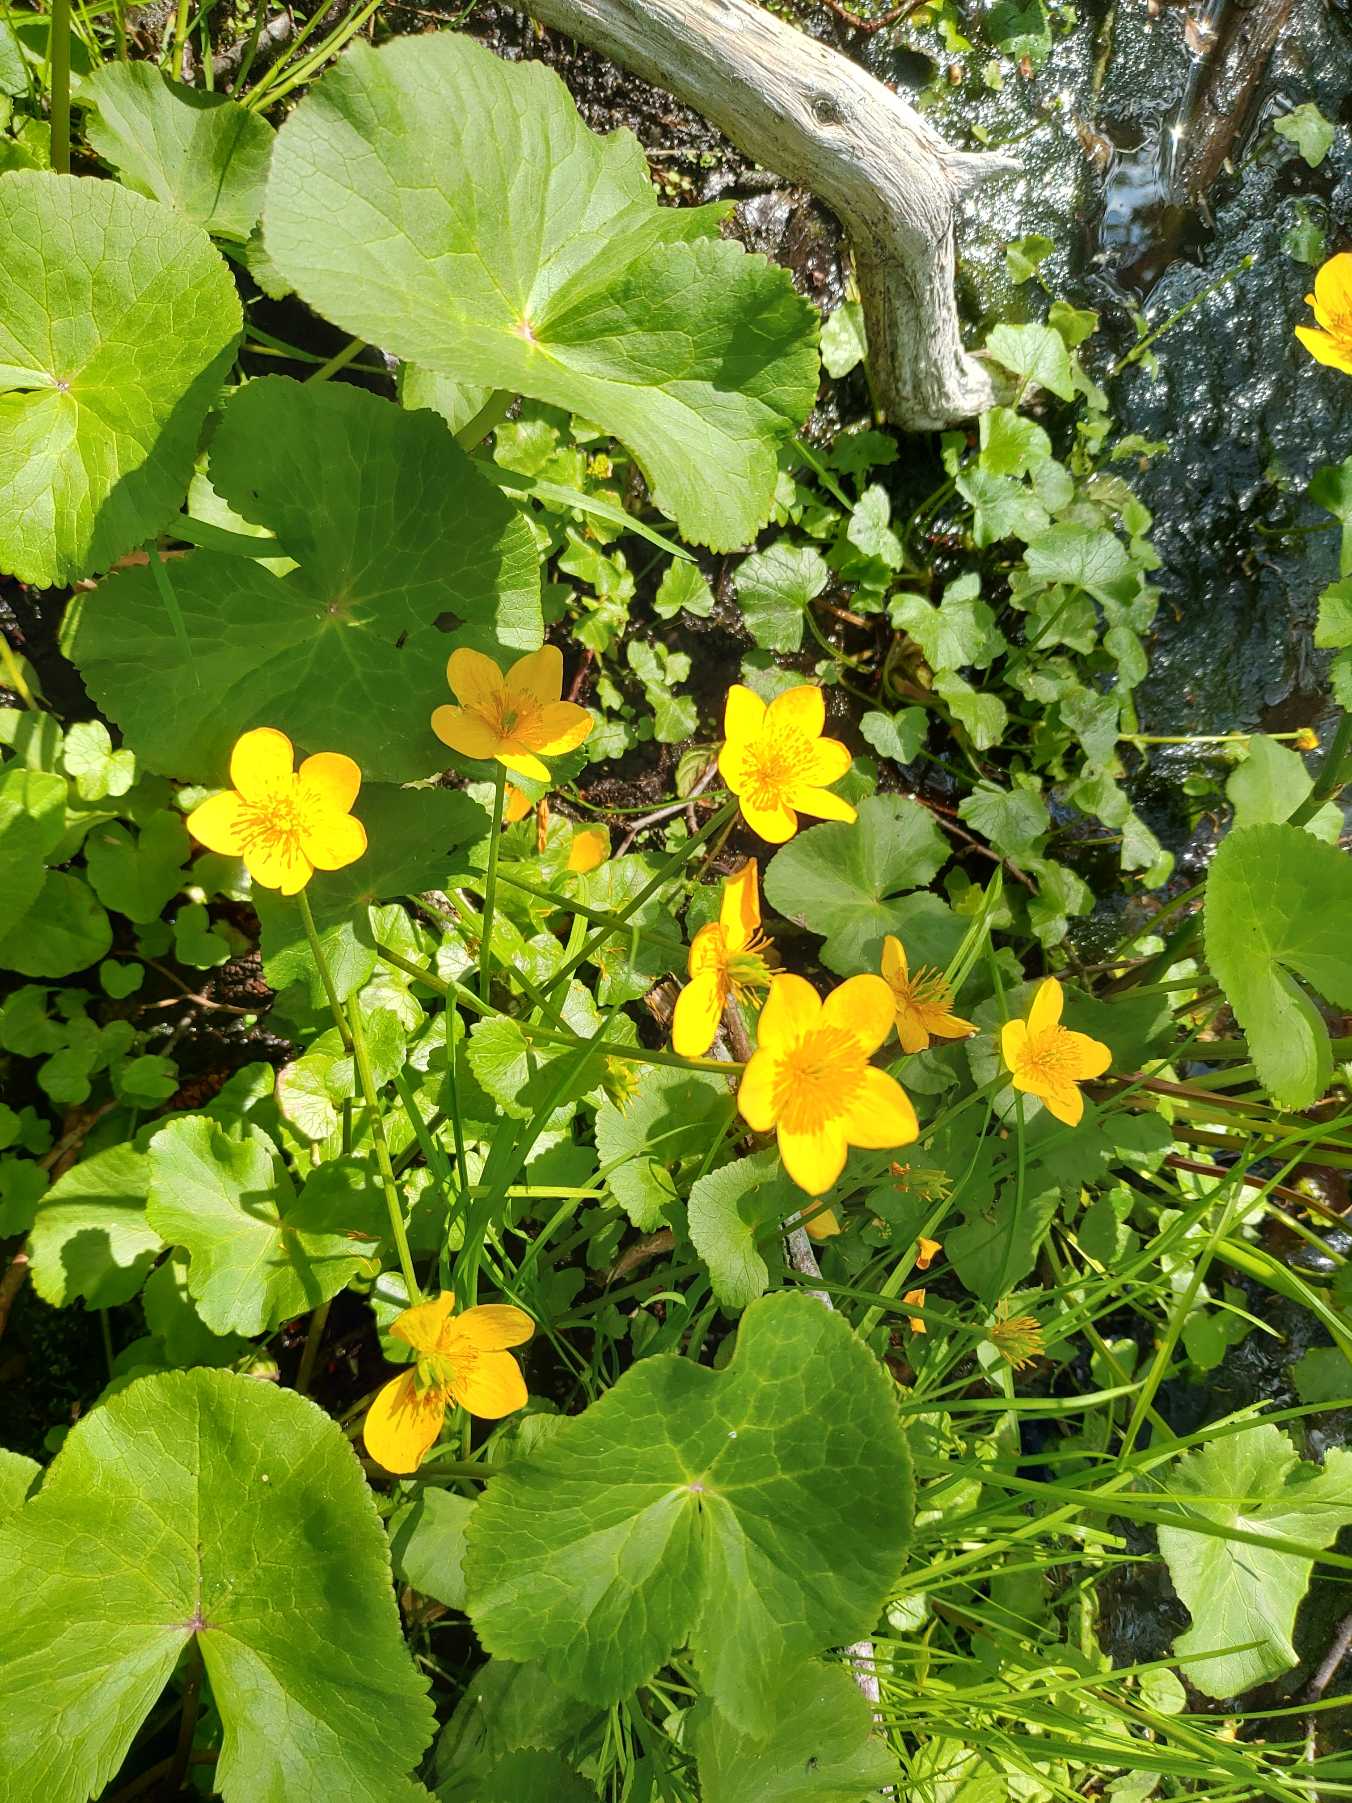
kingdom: Plantae
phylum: Tracheophyta
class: Magnoliopsida
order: Ranunculales
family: Ranunculaceae
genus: Caltha
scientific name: Caltha palustris
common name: Eng-kabbeleje
